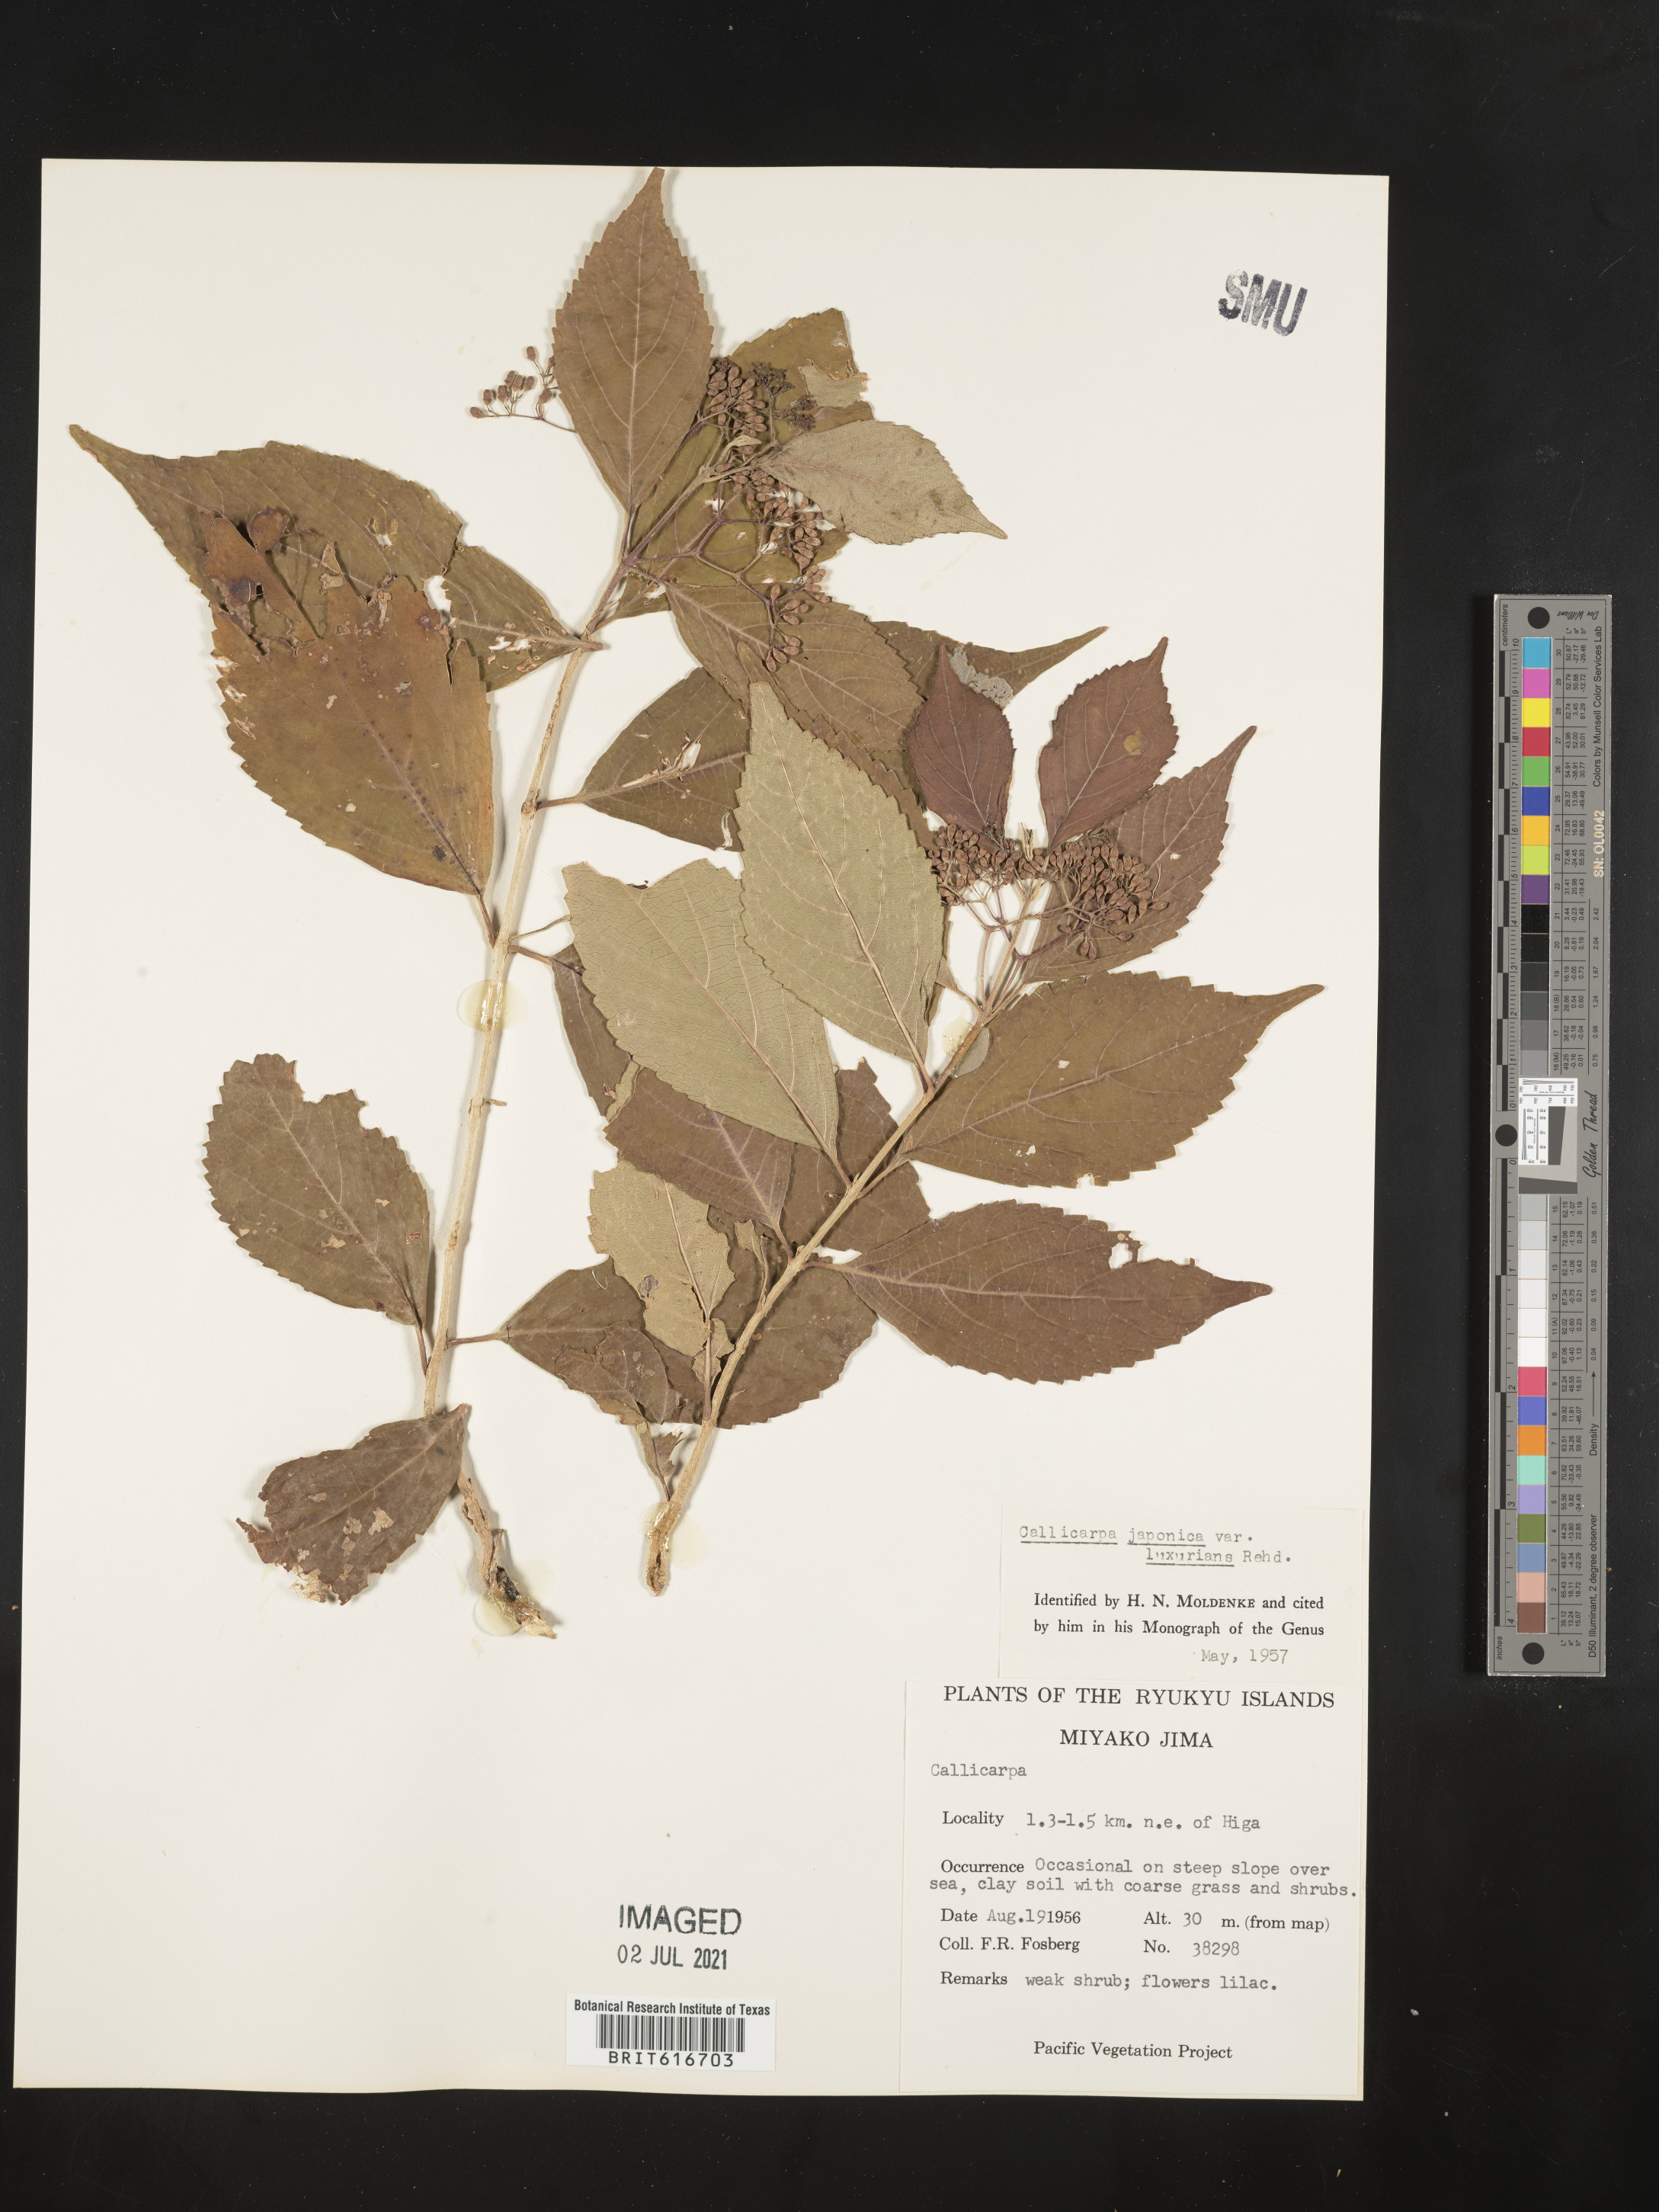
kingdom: Plantae
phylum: Tracheophyta
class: Magnoliopsida
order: Lamiales
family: Lamiaceae
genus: Callicarpa
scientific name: Callicarpa japonica
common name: Japanese beauty-berry
